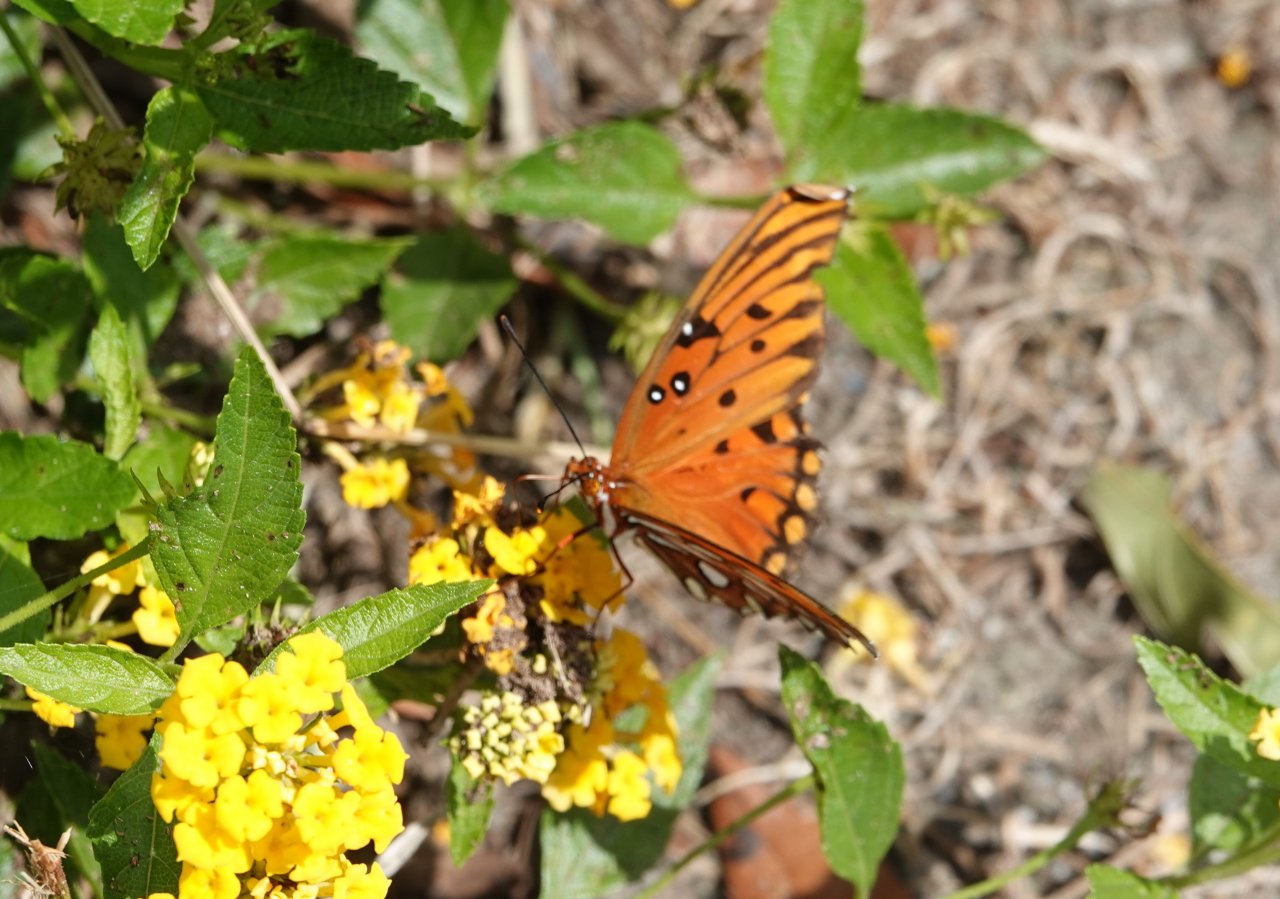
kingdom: Animalia
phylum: Arthropoda
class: Insecta
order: Lepidoptera
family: Nymphalidae
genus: Dione
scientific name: Dione vanillae
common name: Gulf Fritillary
